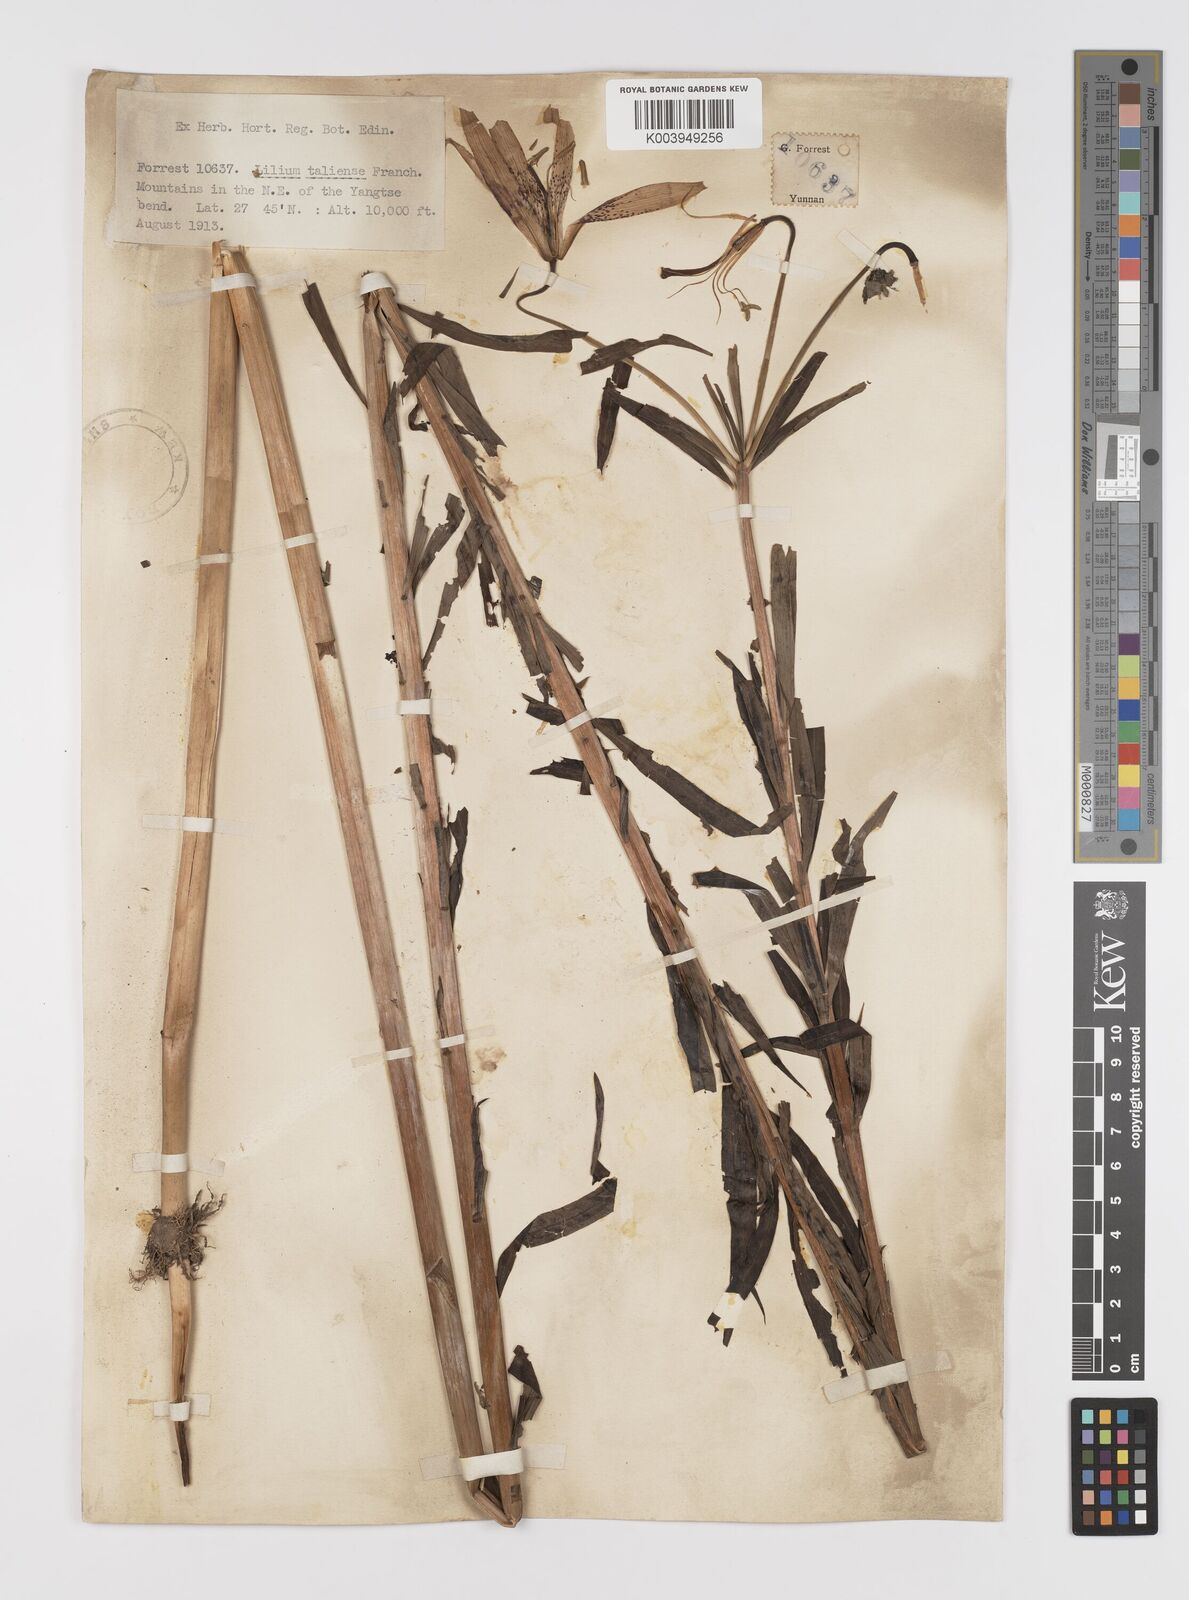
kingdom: Plantae
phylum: Tracheophyta
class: Liliopsida
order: Liliales
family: Liliaceae
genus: Lilium
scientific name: Lilium taliense
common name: Tali lily
